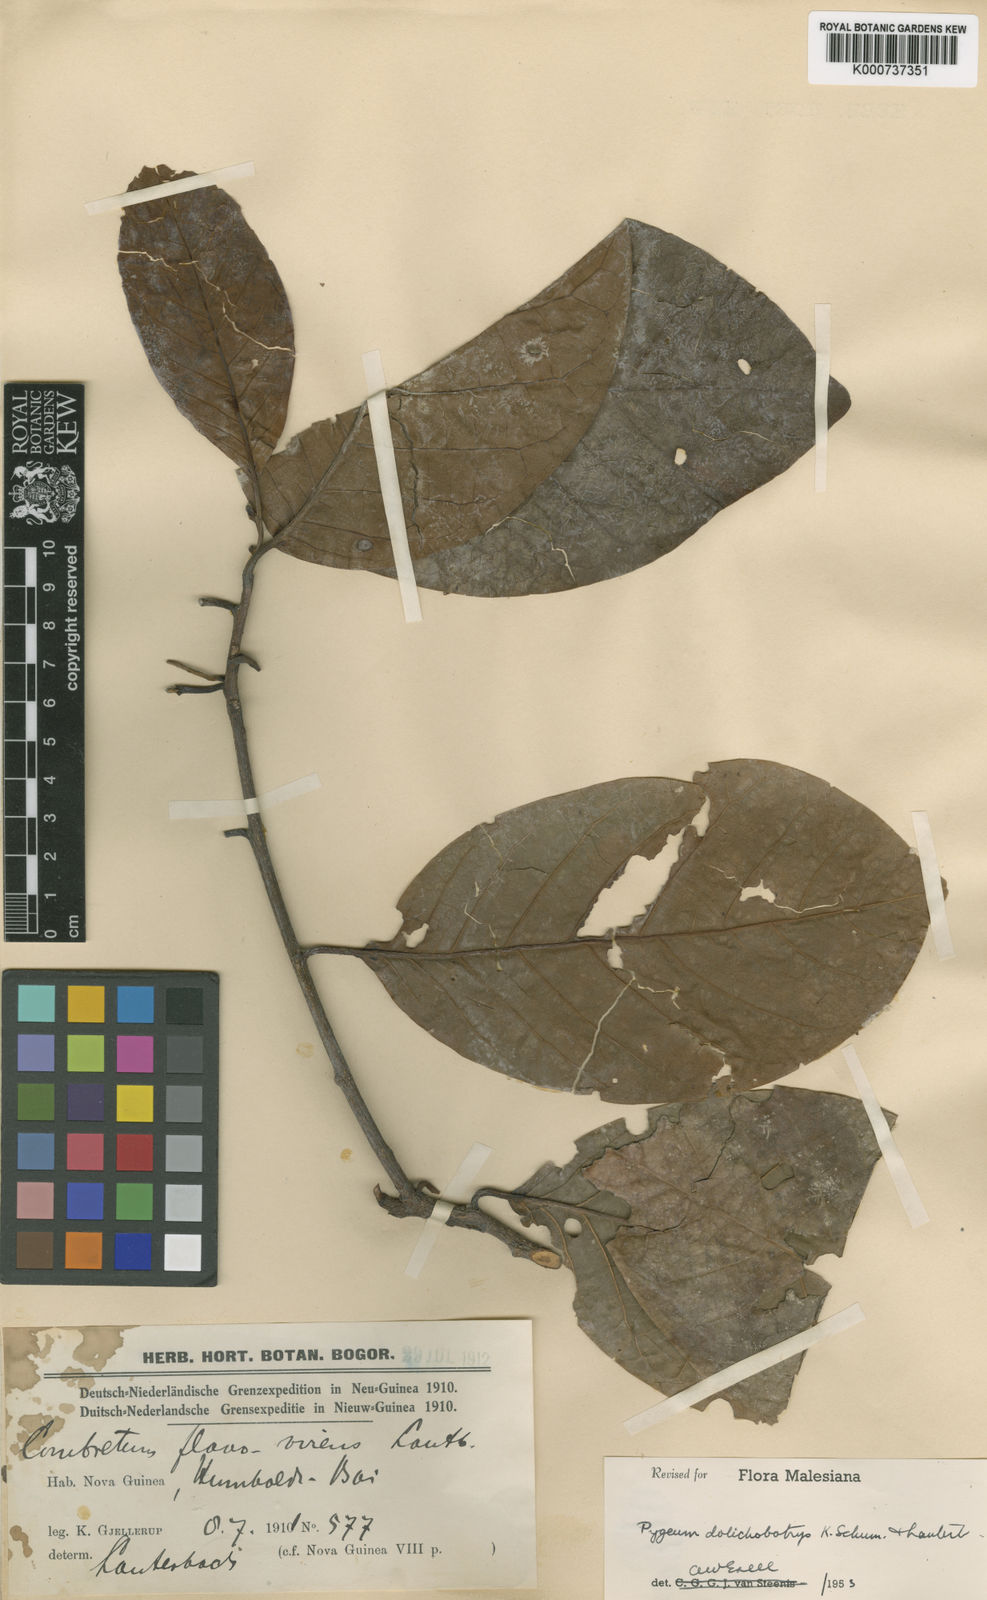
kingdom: Plantae
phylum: Tracheophyta
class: Magnoliopsida
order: Rosales
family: Rosaceae
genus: Prunus
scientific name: Prunus dolichobotrys
